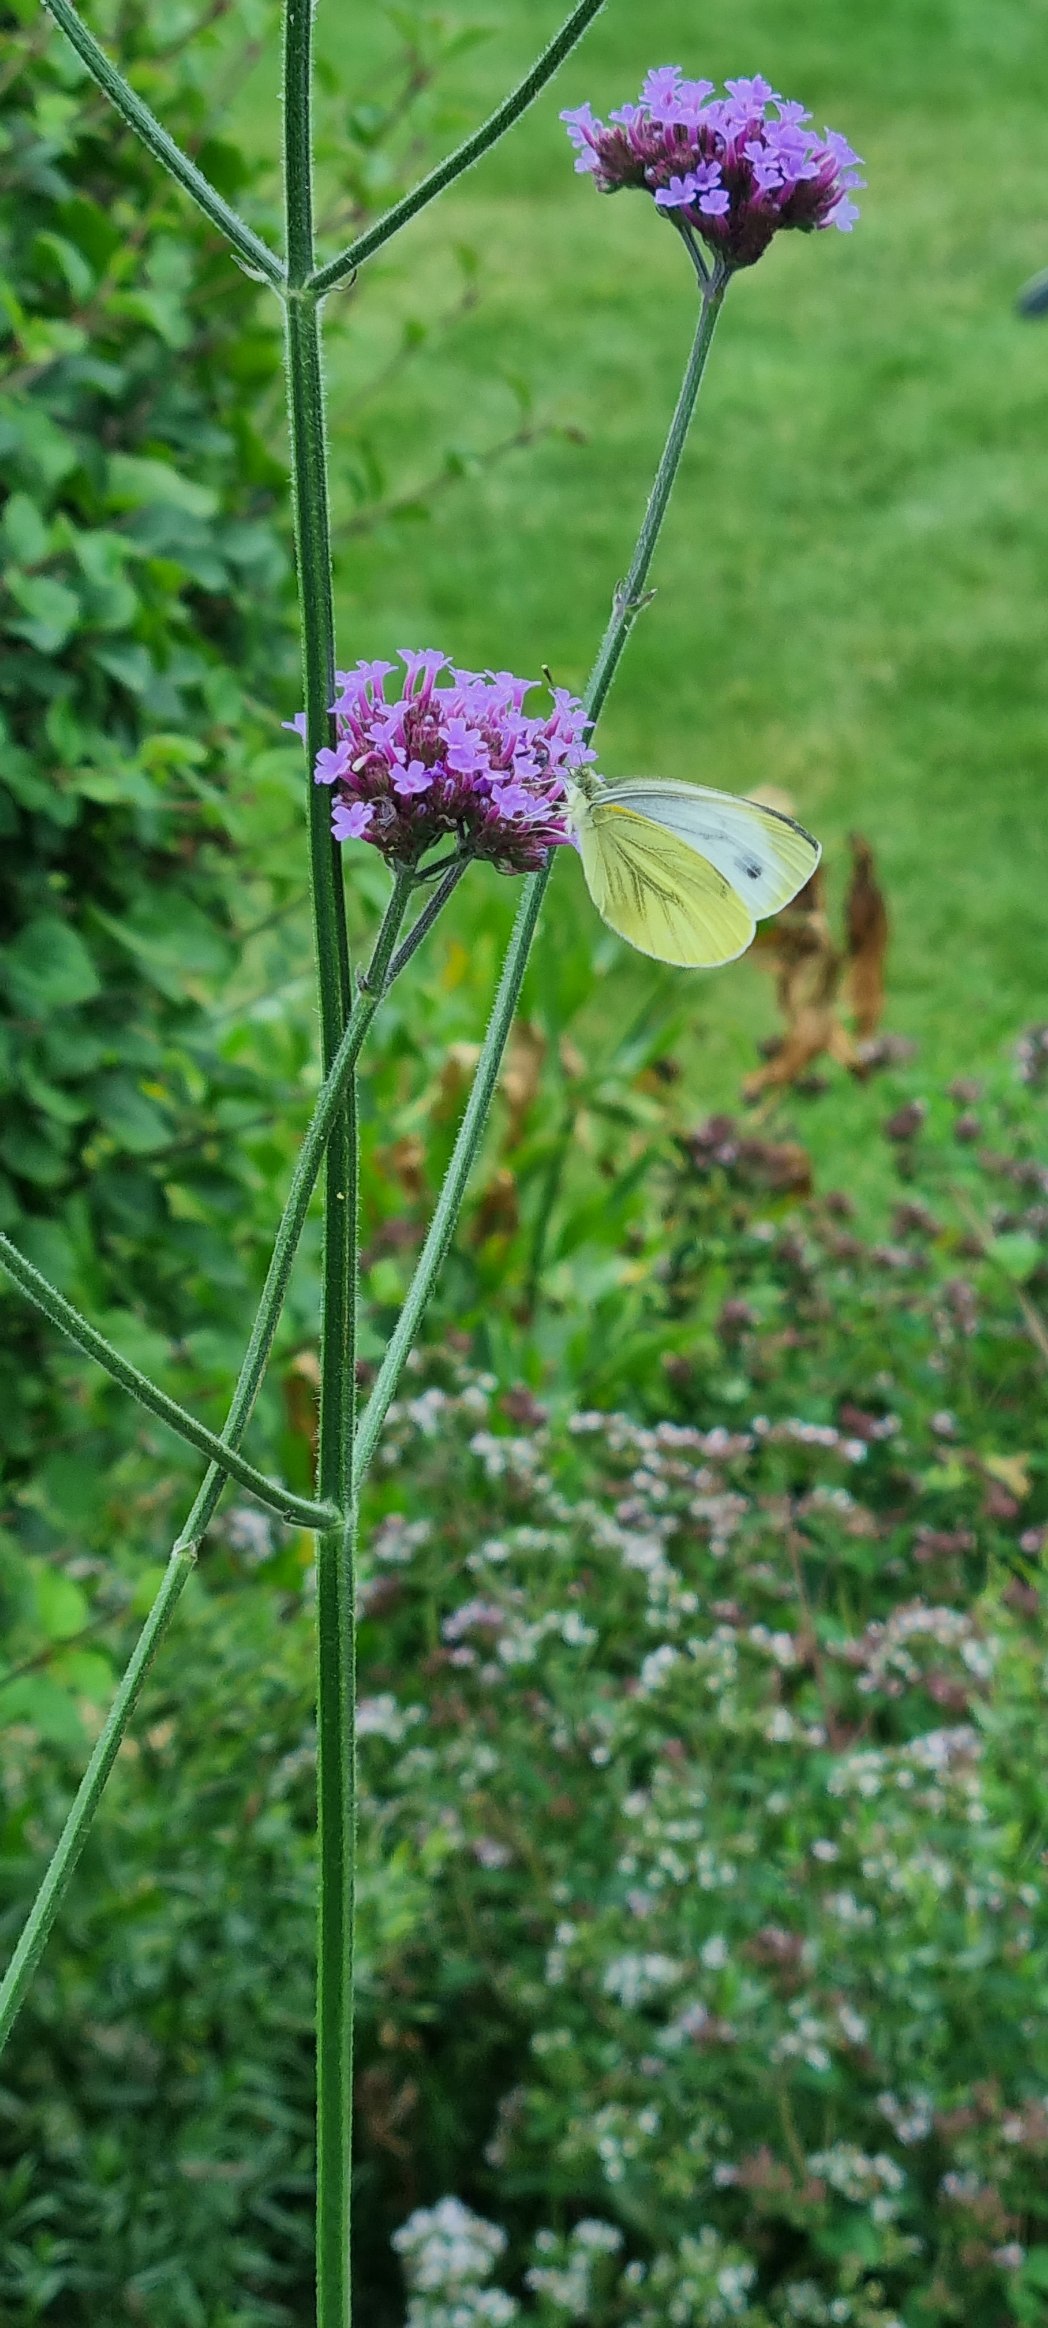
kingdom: Animalia
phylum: Arthropoda
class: Insecta
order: Lepidoptera
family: Pieridae
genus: Pieris
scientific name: Pieris napi
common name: Grønåret kålsommerfugl
